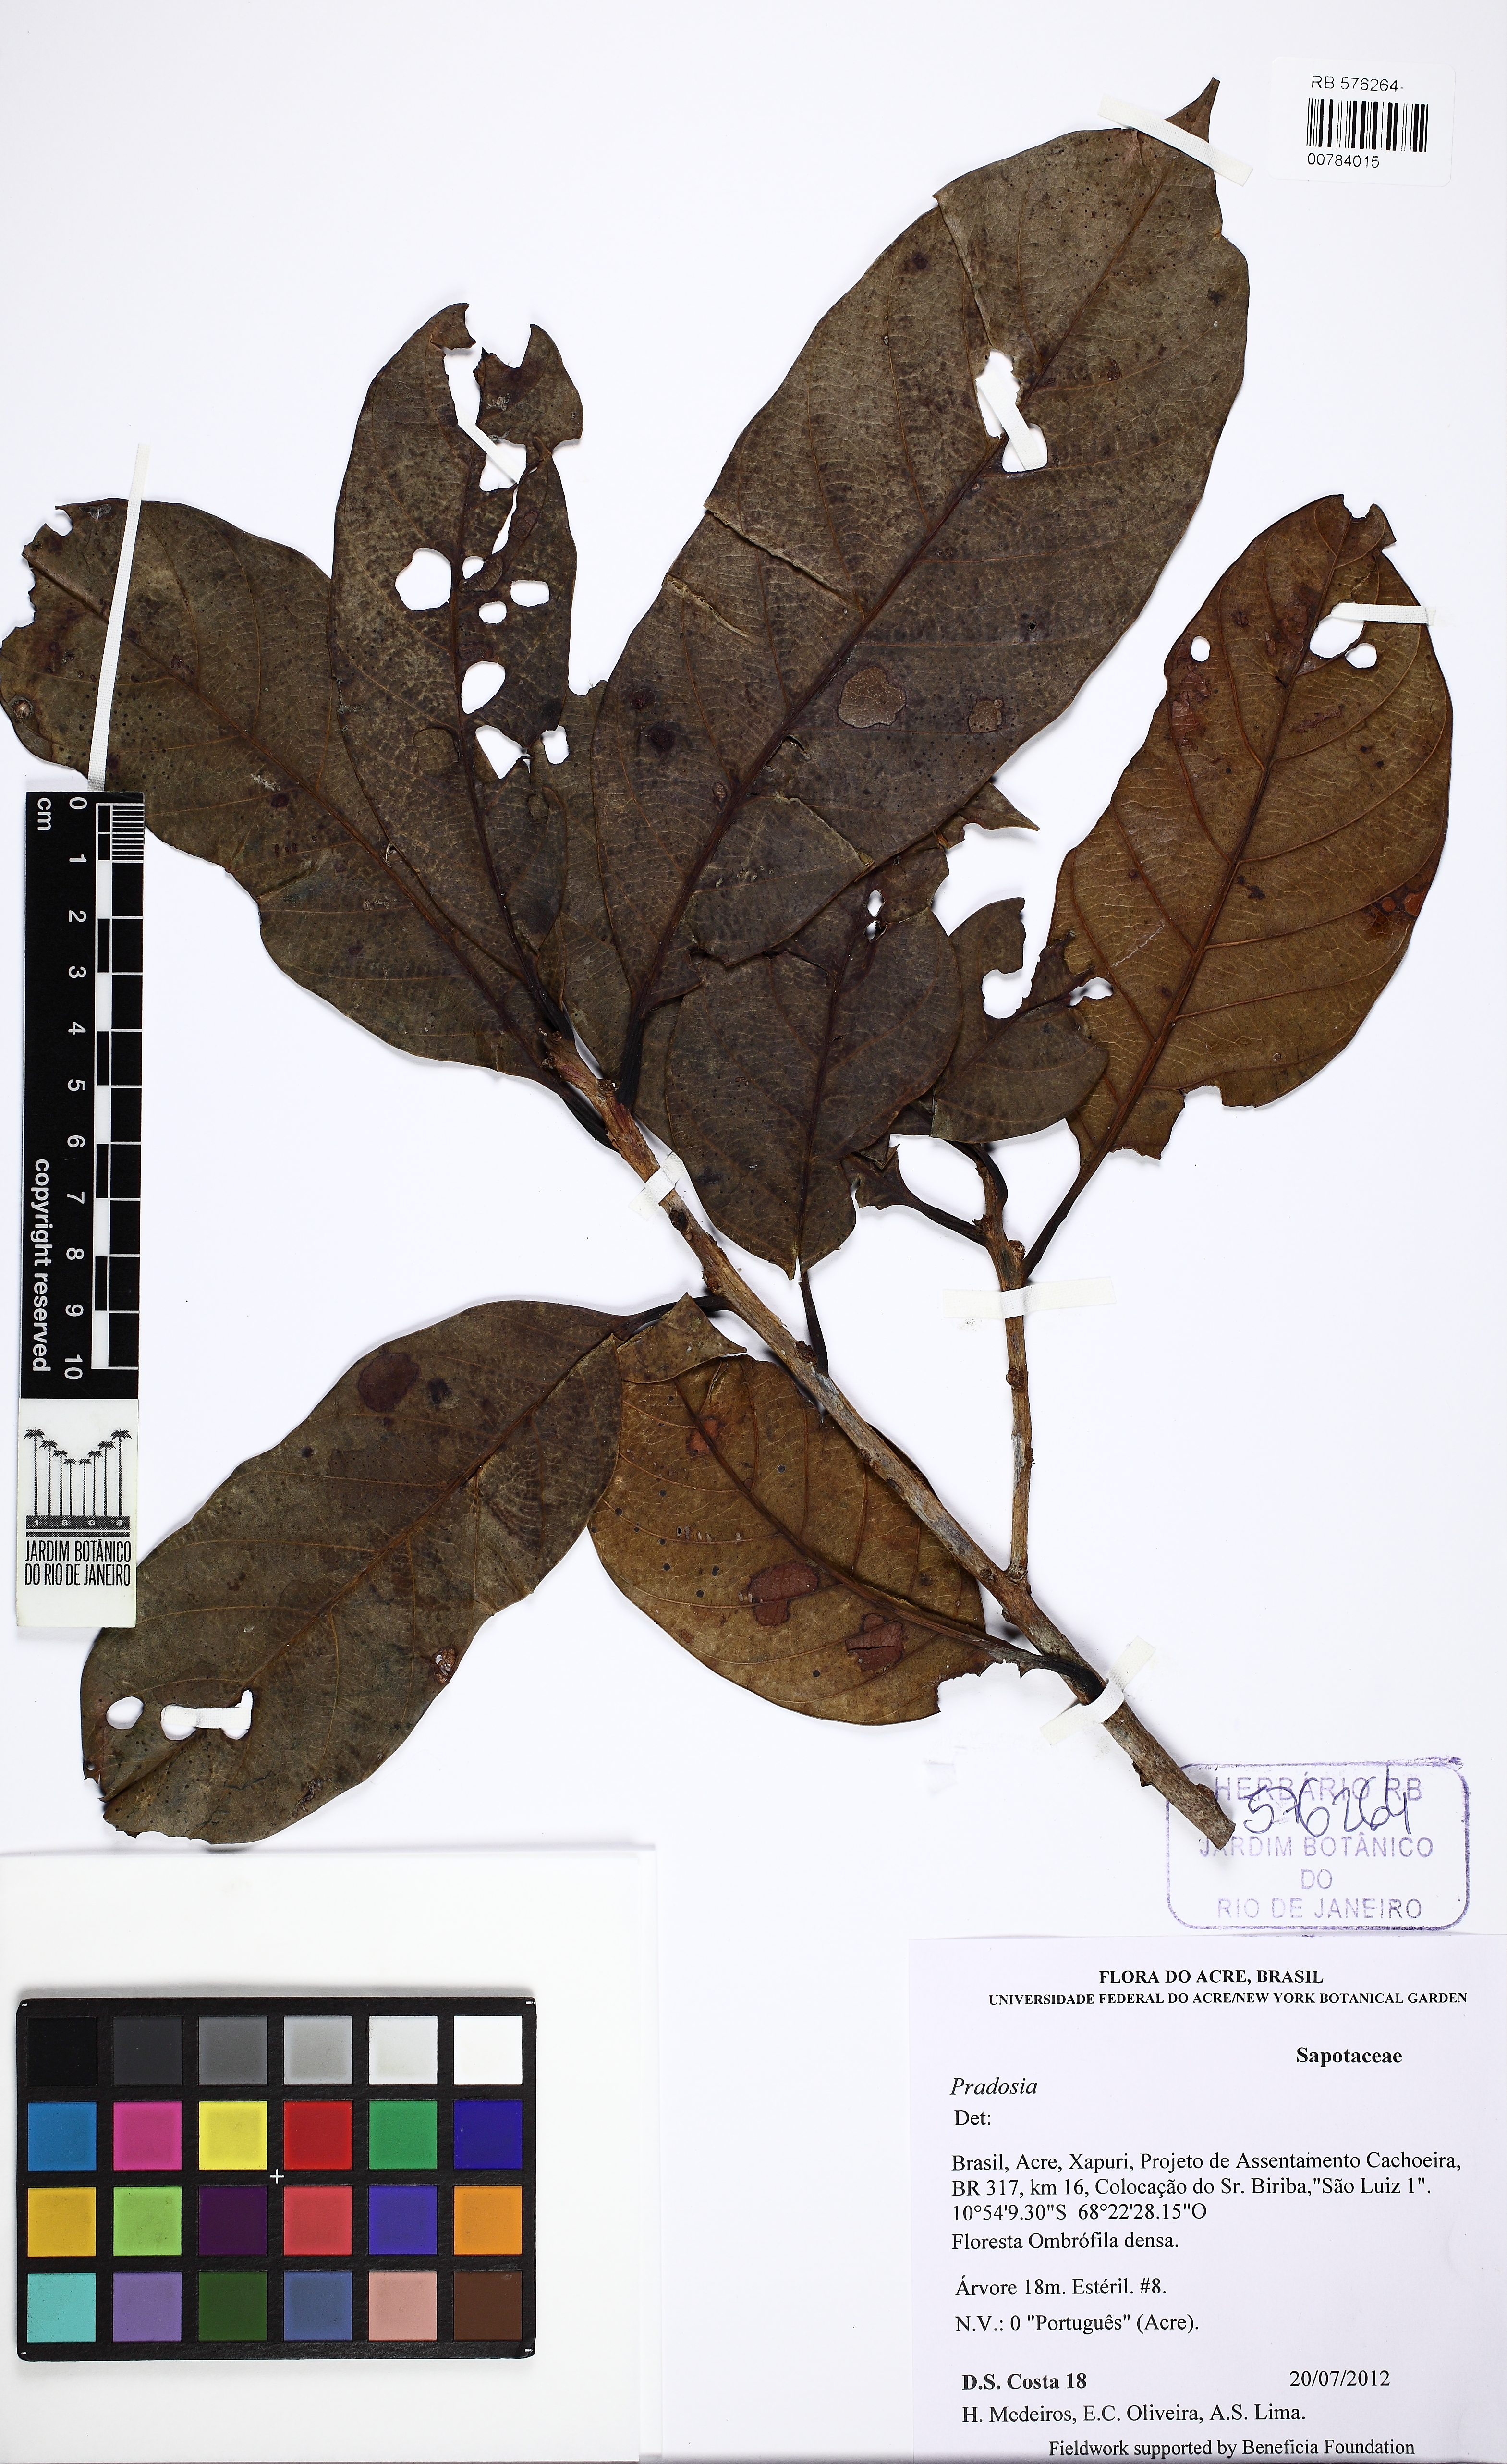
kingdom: Plantae
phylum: Tracheophyta
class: Magnoliopsida
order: Ericales
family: Sapotaceae
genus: Pradosia
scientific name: Pradosia
